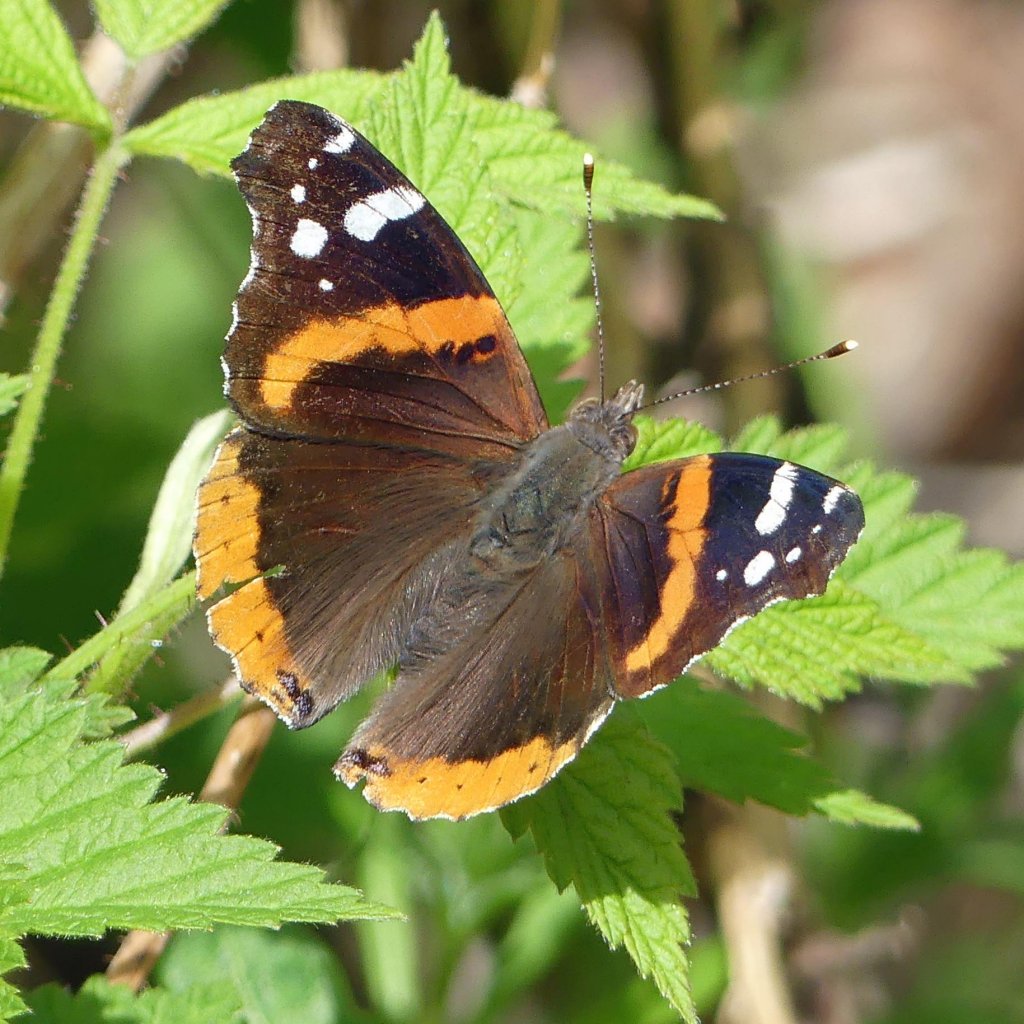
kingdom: Animalia
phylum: Arthropoda
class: Insecta
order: Lepidoptera
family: Nymphalidae
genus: Vanessa
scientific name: Vanessa atalanta
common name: Red Admiral
